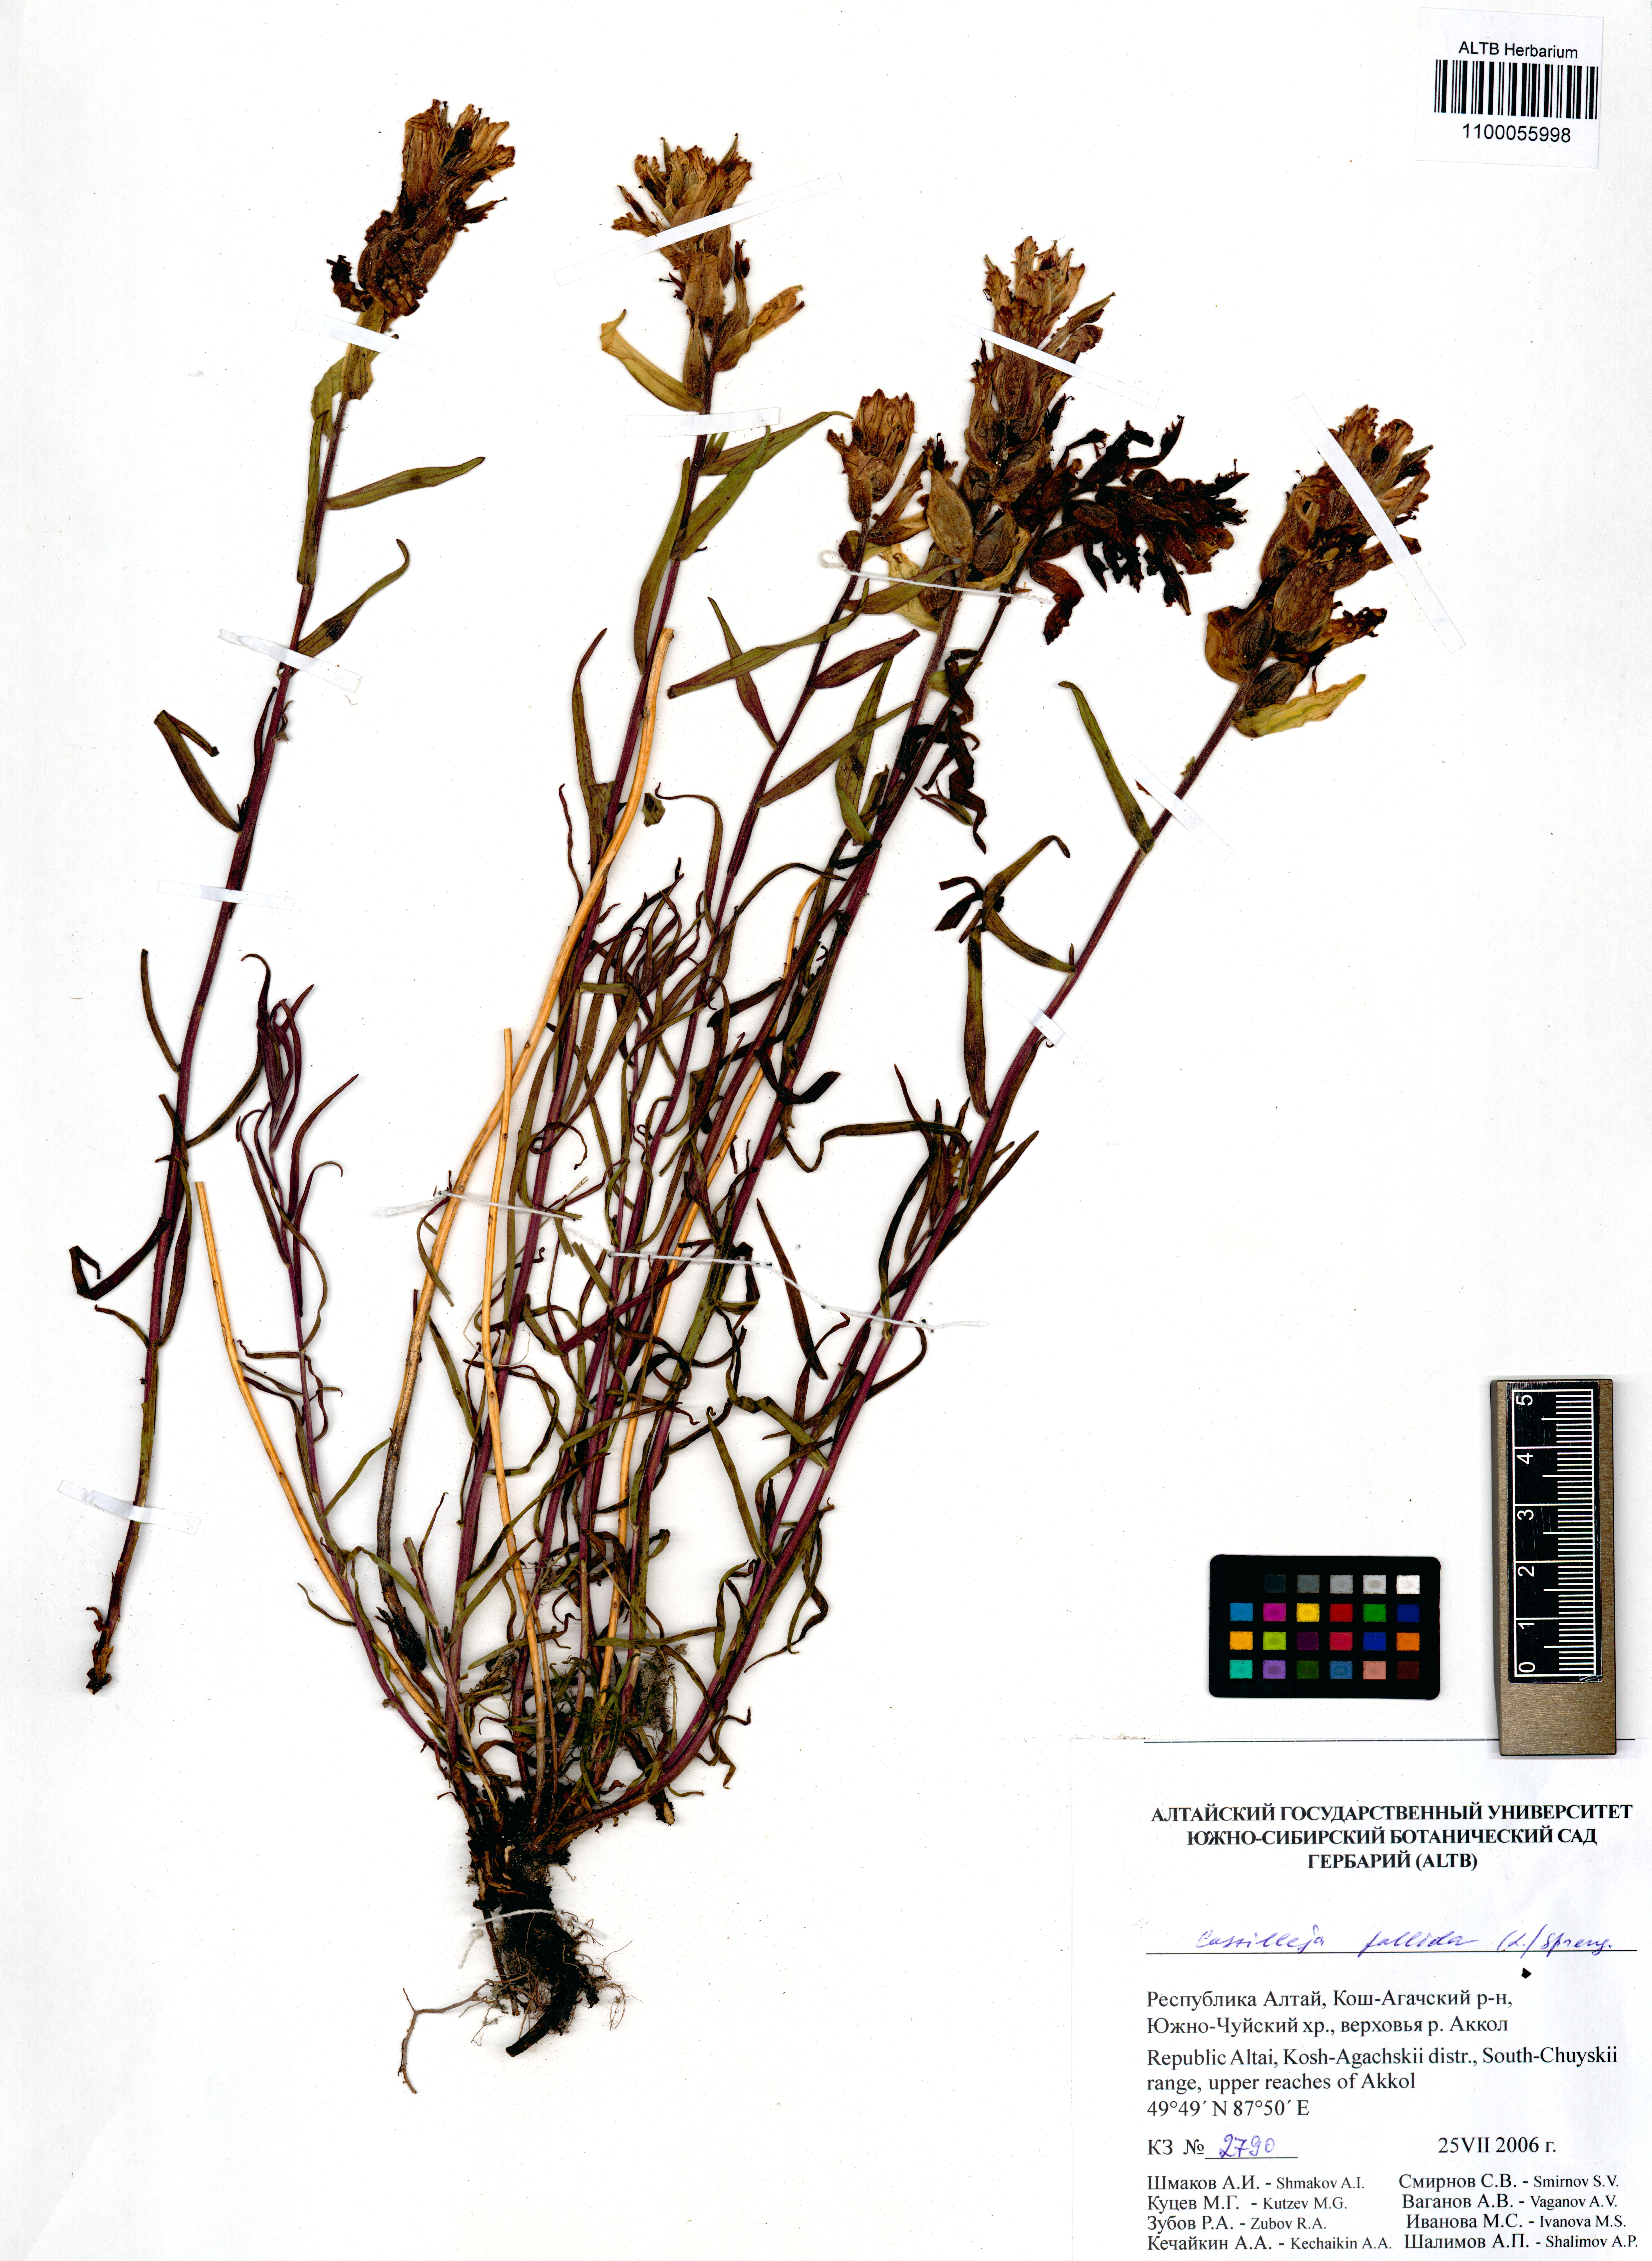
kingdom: Plantae
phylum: Tracheophyta
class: Magnoliopsida
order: Lamiales
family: Orobanchaceae
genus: Castilleja
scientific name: Castilleja pallida
